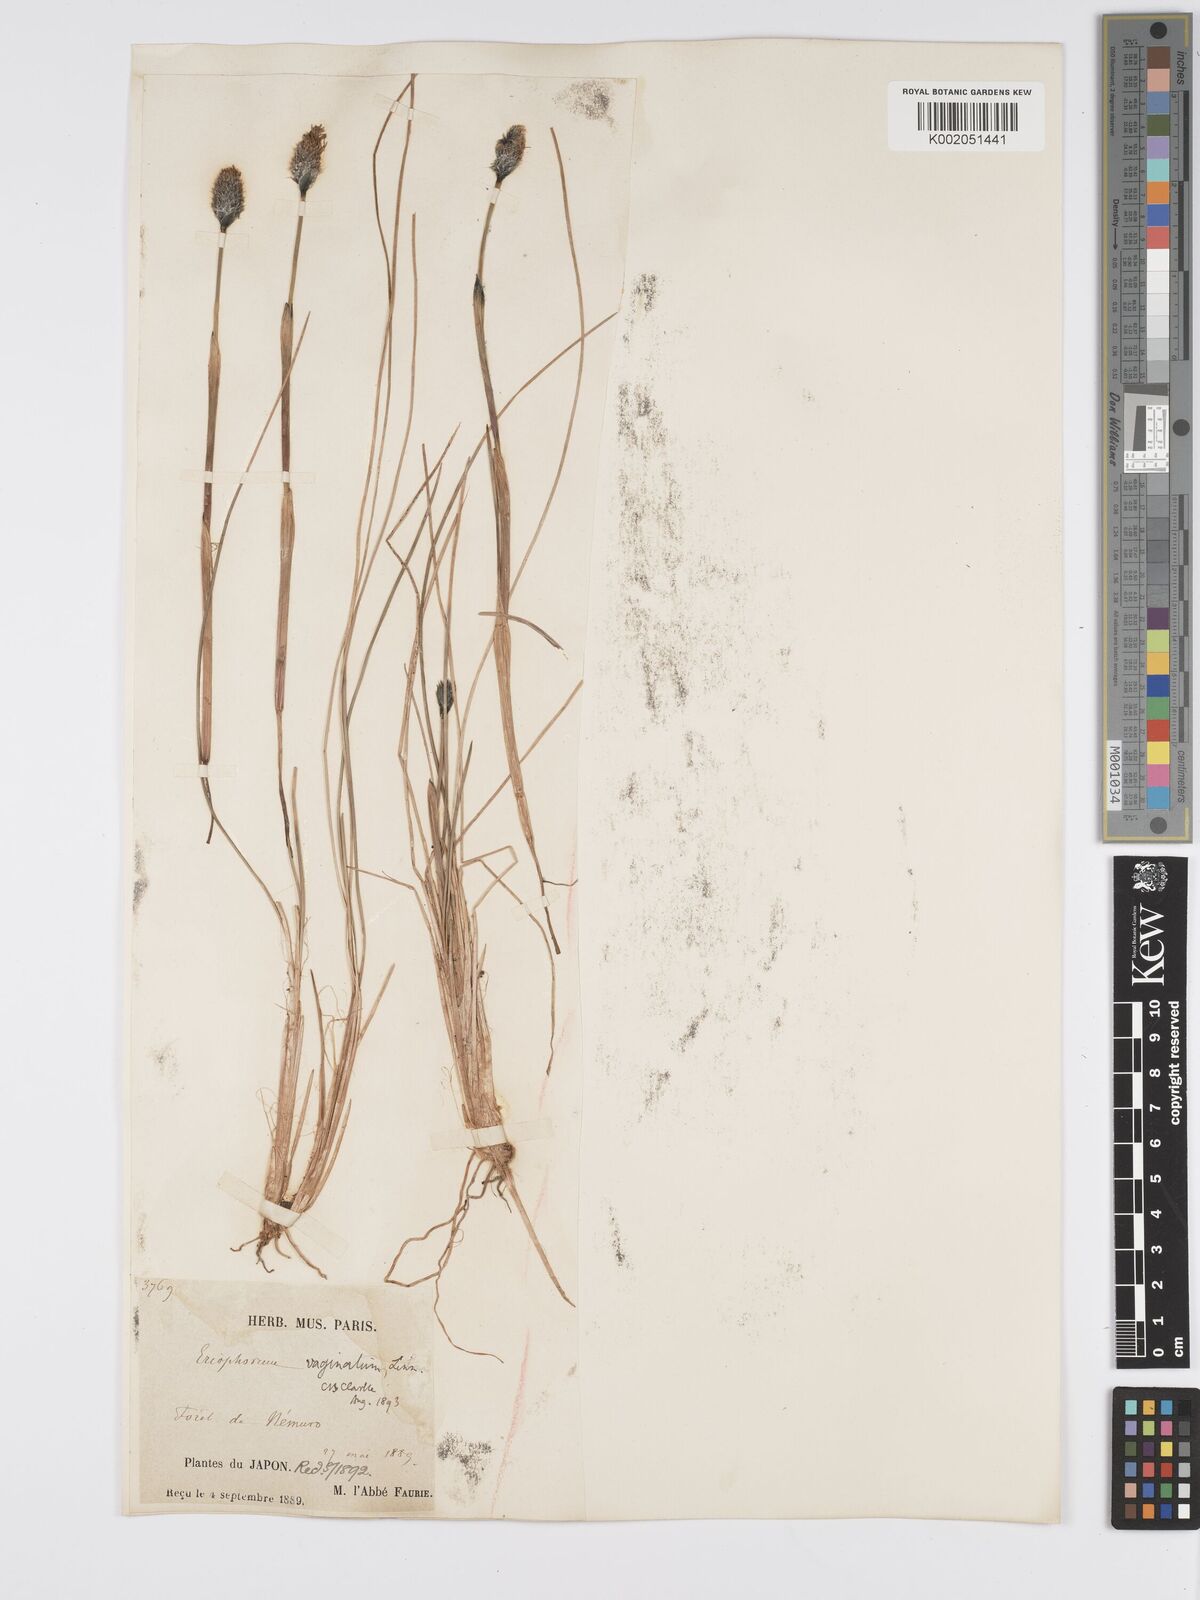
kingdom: Plantae
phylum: Tracheophyta
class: Liliopsida
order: Poales
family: Cyperaceae
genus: Eriophorum
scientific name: Eriophorum vaginatum
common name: Hare's-tail cottongrass
